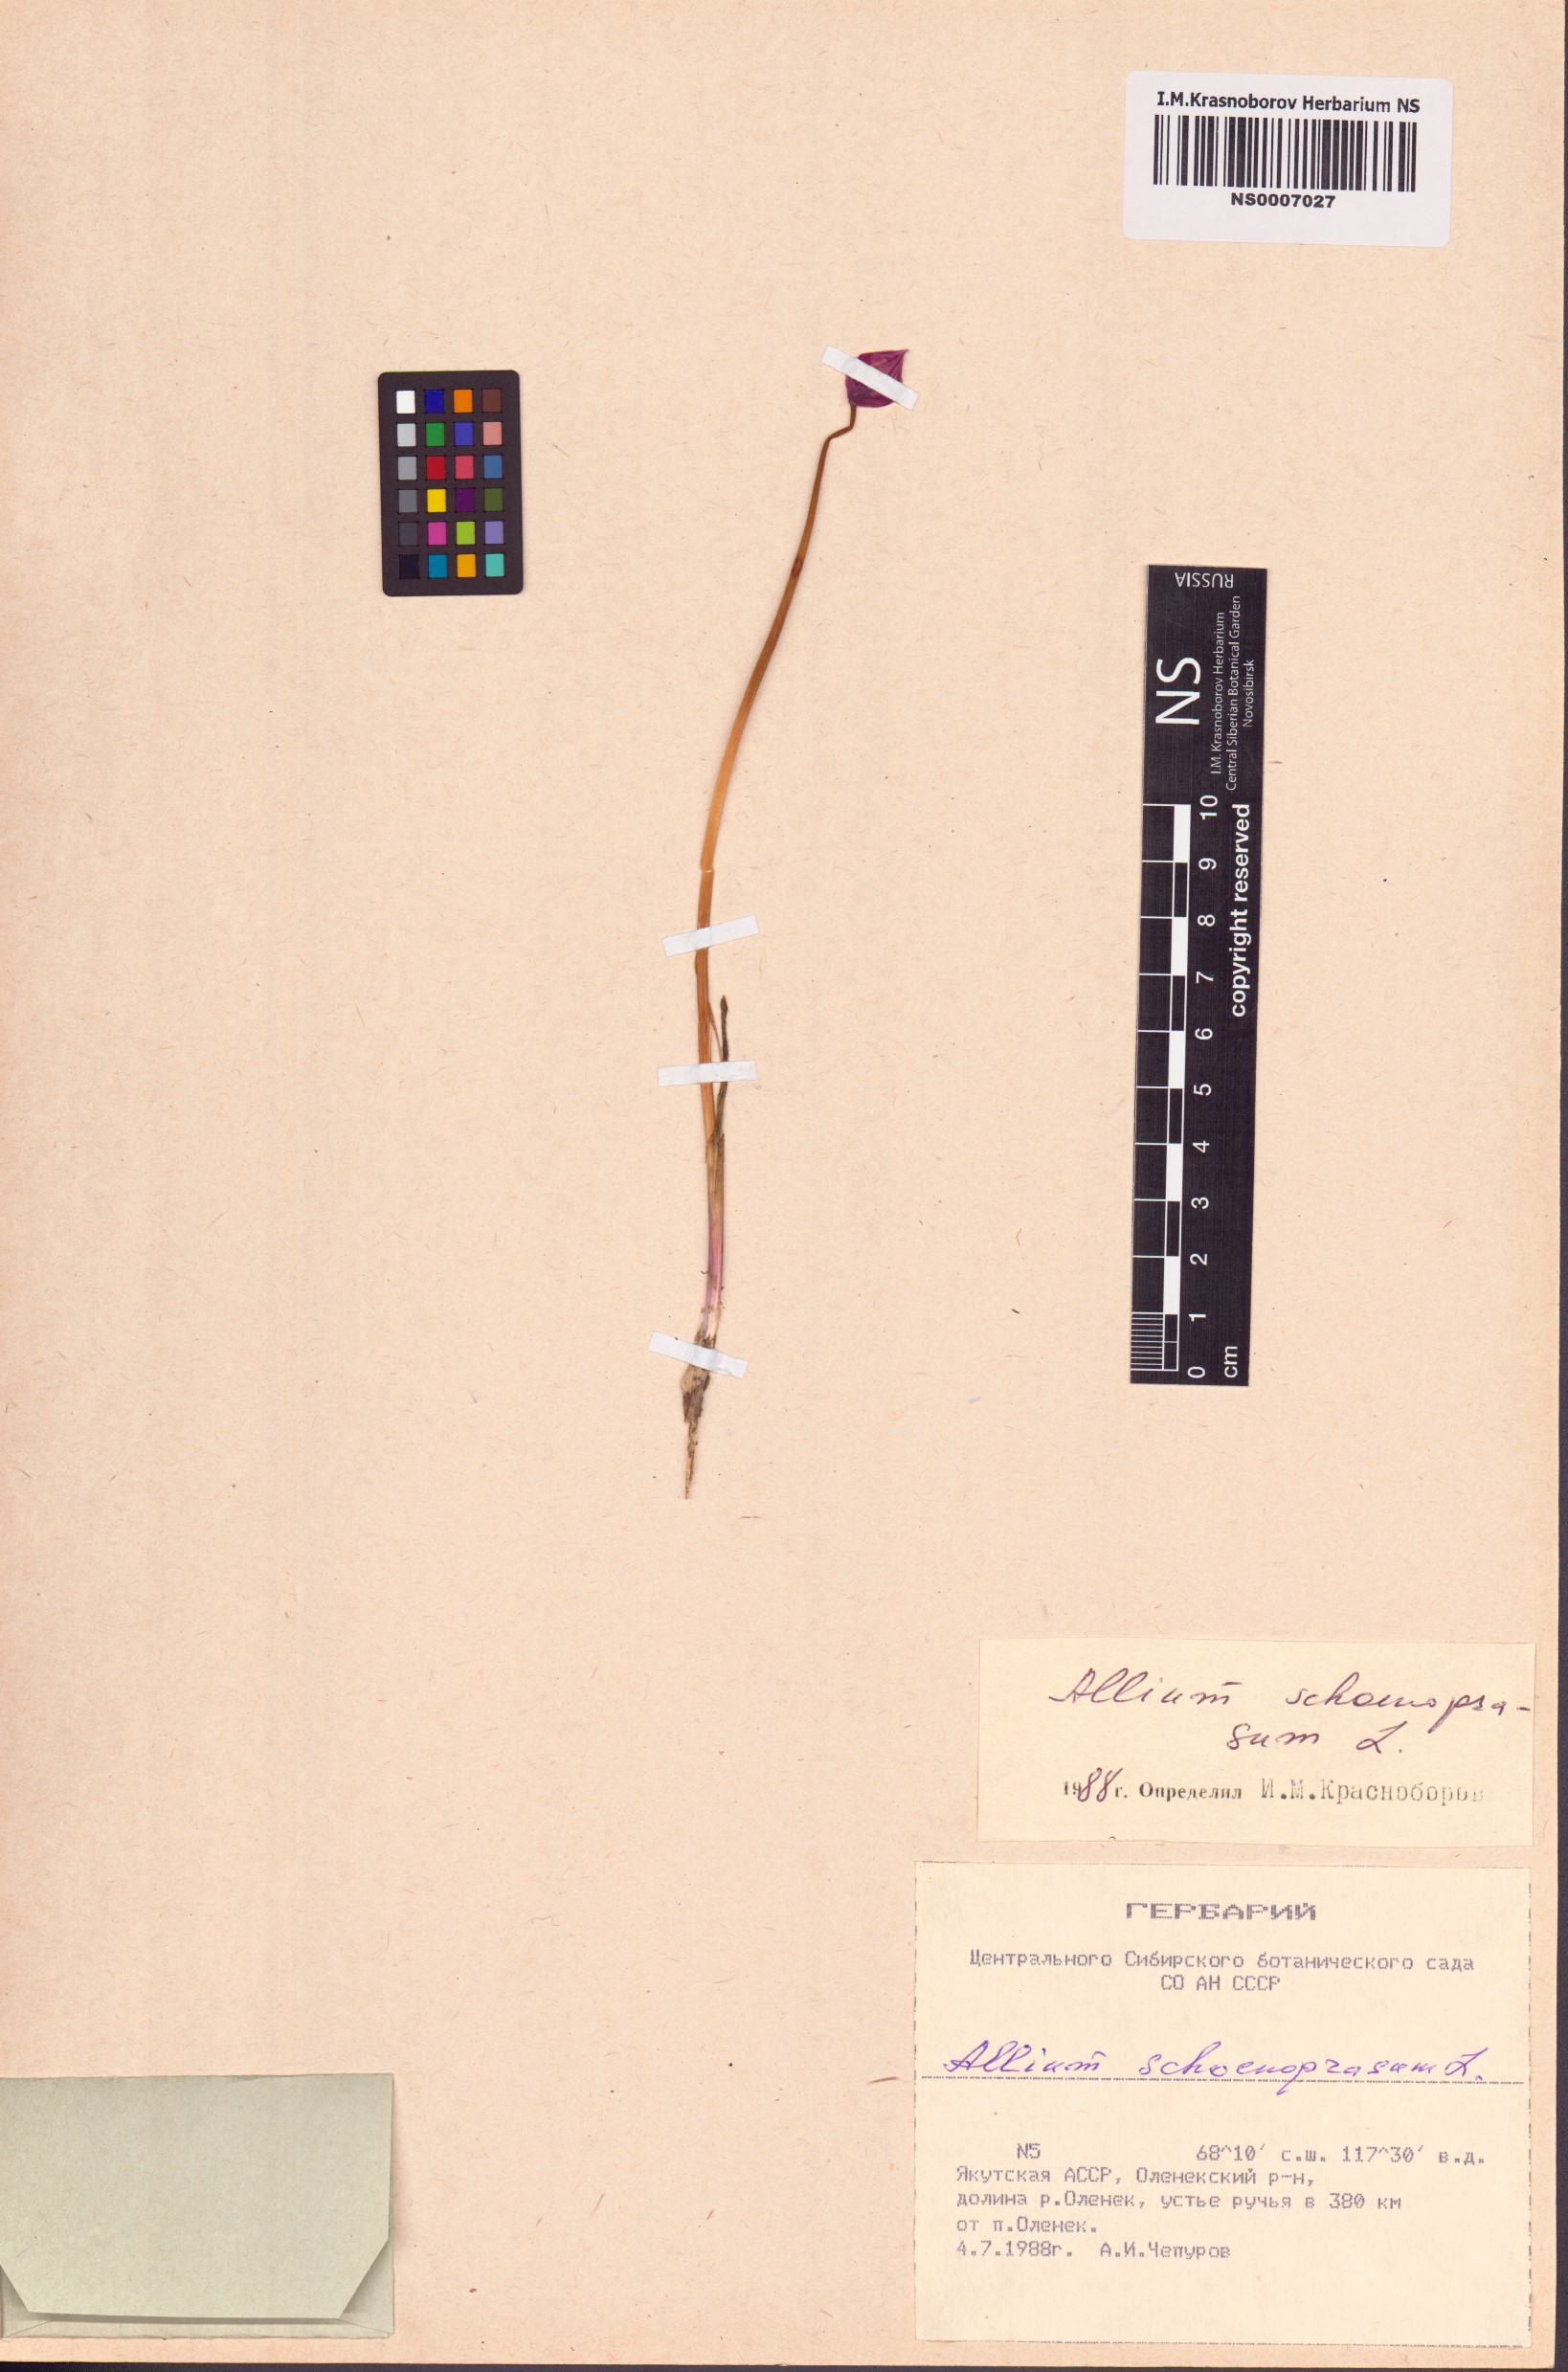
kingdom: Plantae
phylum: Tracheophyta
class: Liliopsida
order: Asparagales
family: Amaryllidaceae
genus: Allium
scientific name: Allium schoenoprasum
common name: Chives
